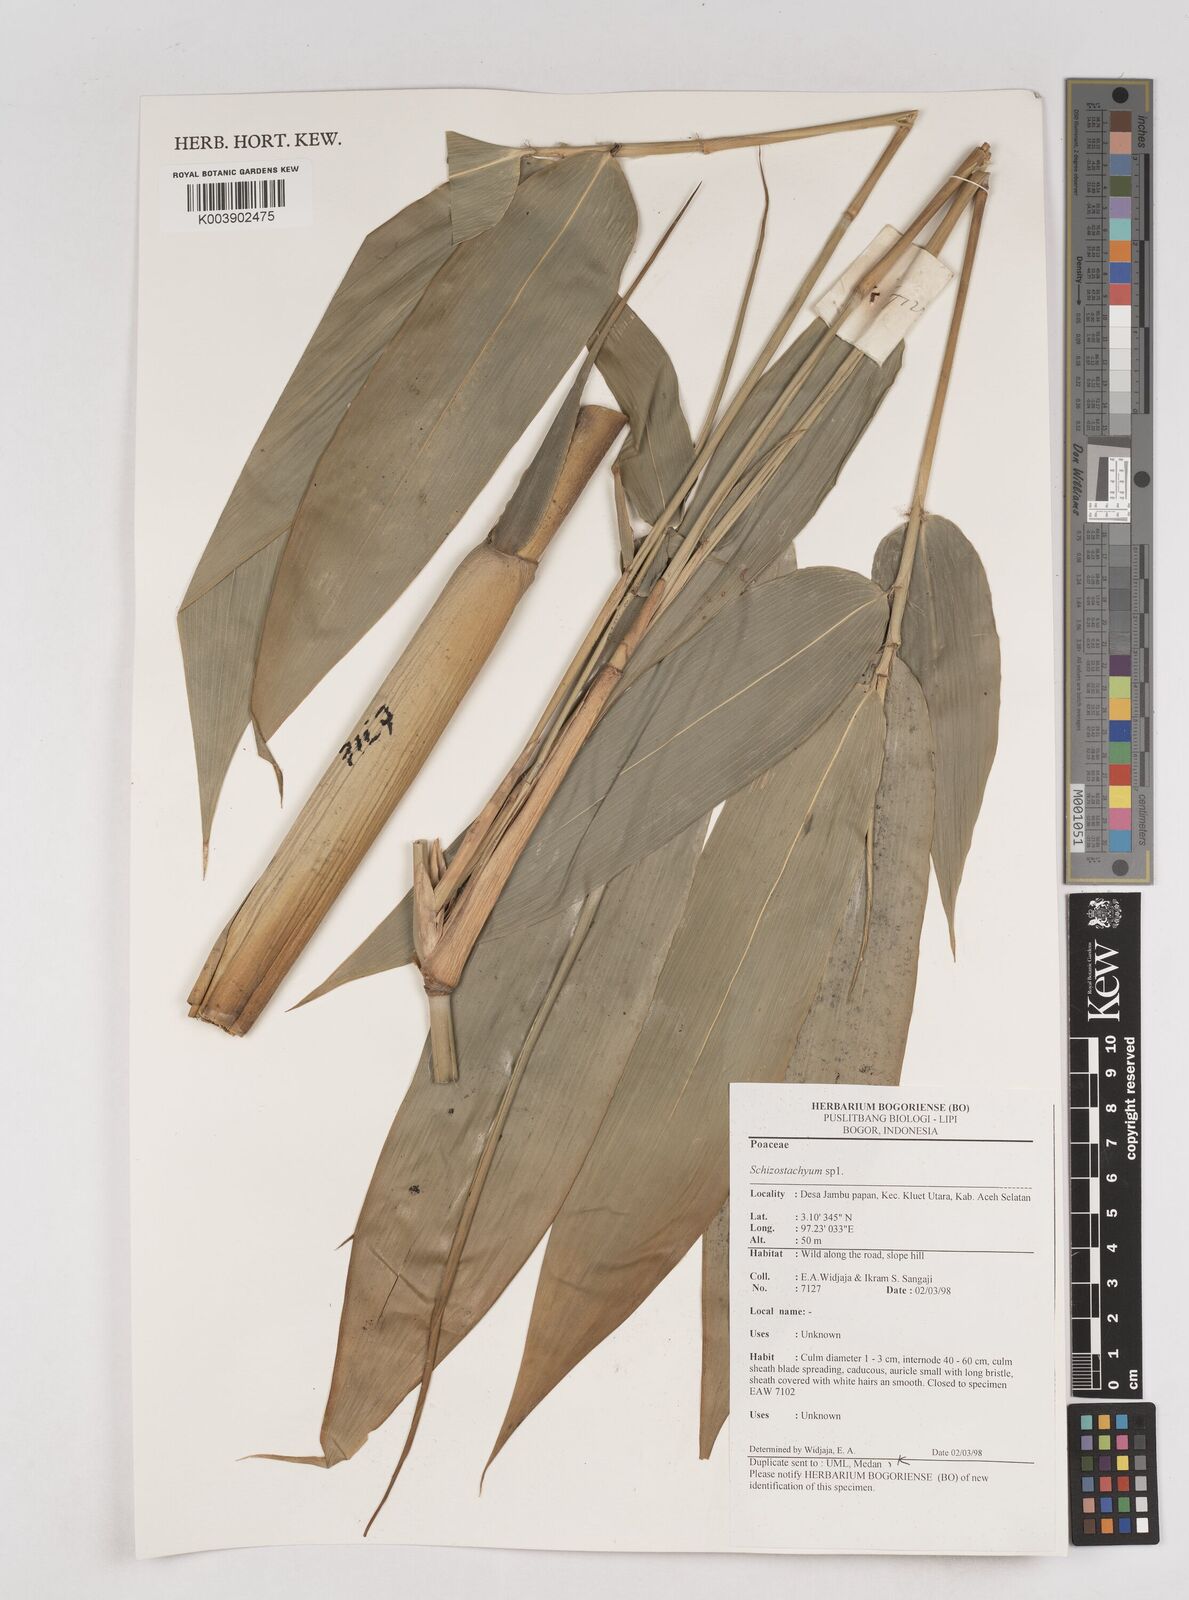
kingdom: Plantae
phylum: Tracheophyta
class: Liliopsida
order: Poales
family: Poaceae
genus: Schizostachyum
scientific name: Schizostachyum
